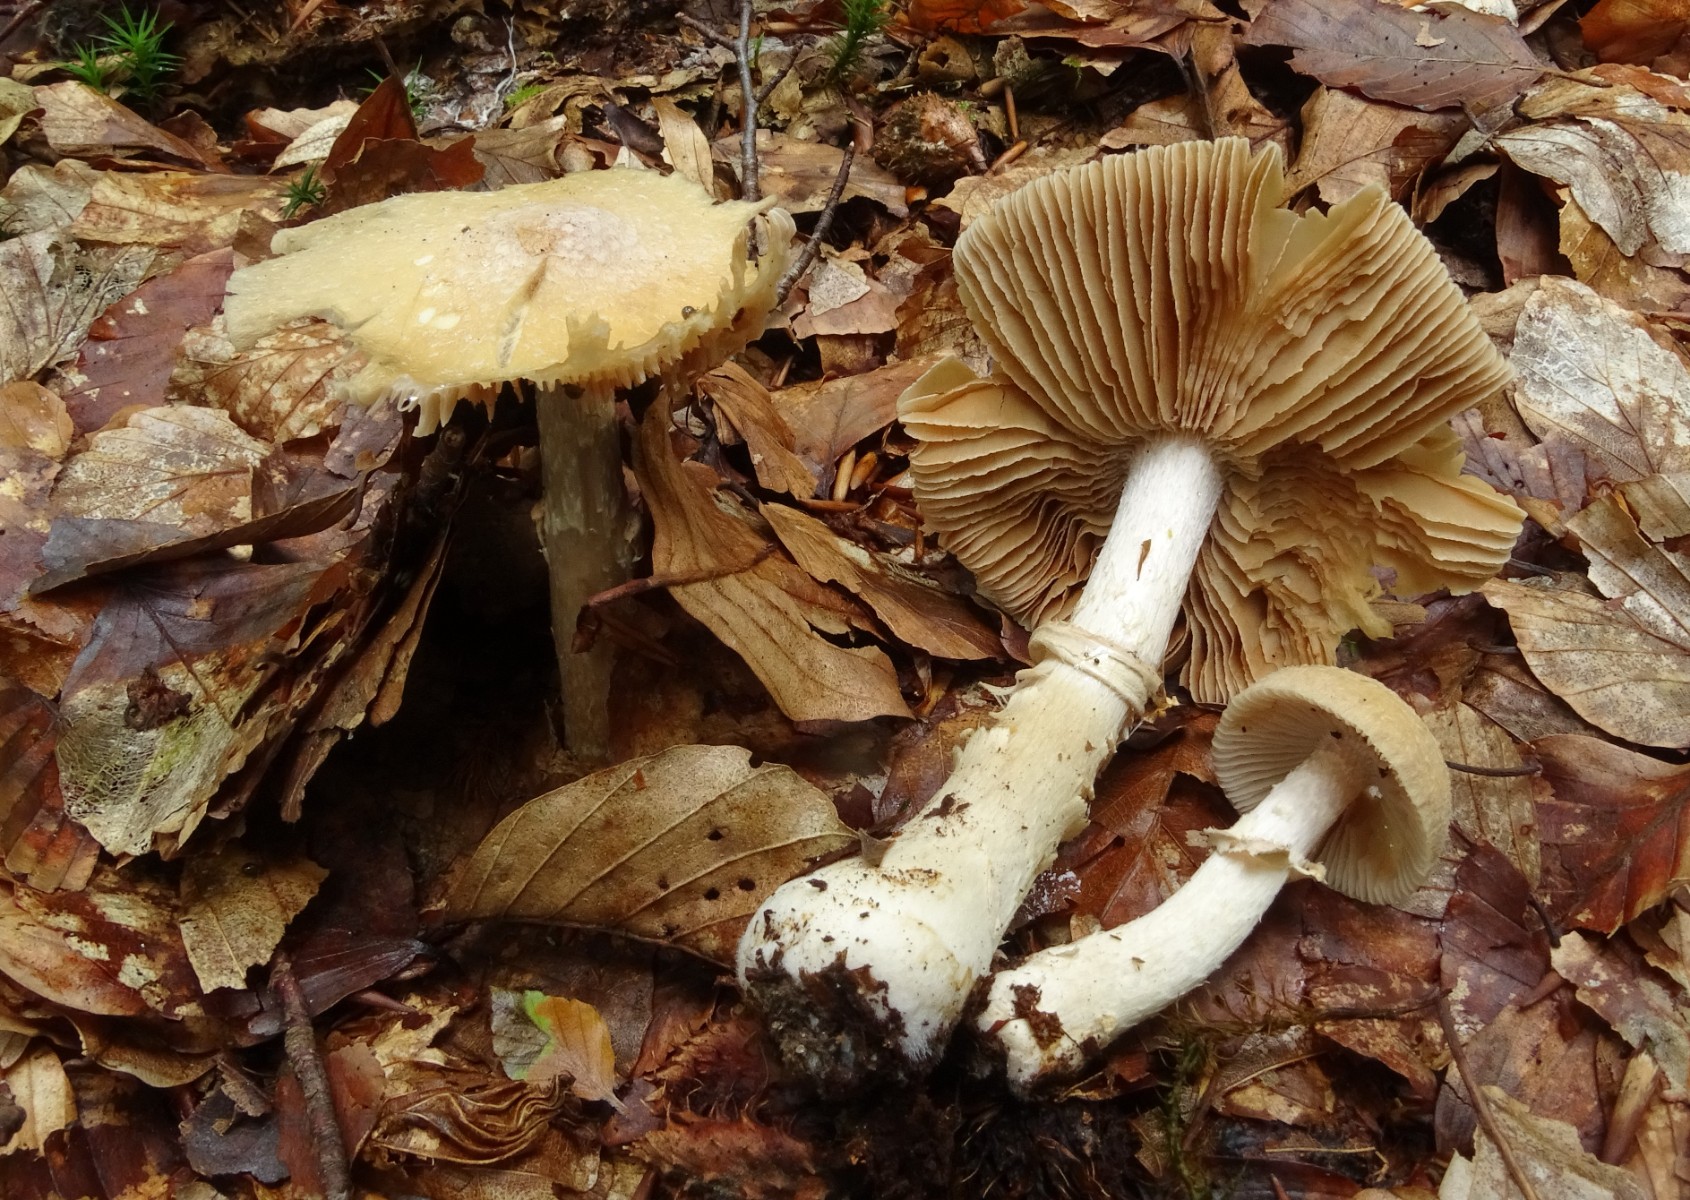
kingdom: Fungi
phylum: Basidiomycota
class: Agaricomycetes
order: Agaricales
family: Cortinariaceae
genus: Cortinarius
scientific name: Cortinarius caperatus
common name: klidhat
